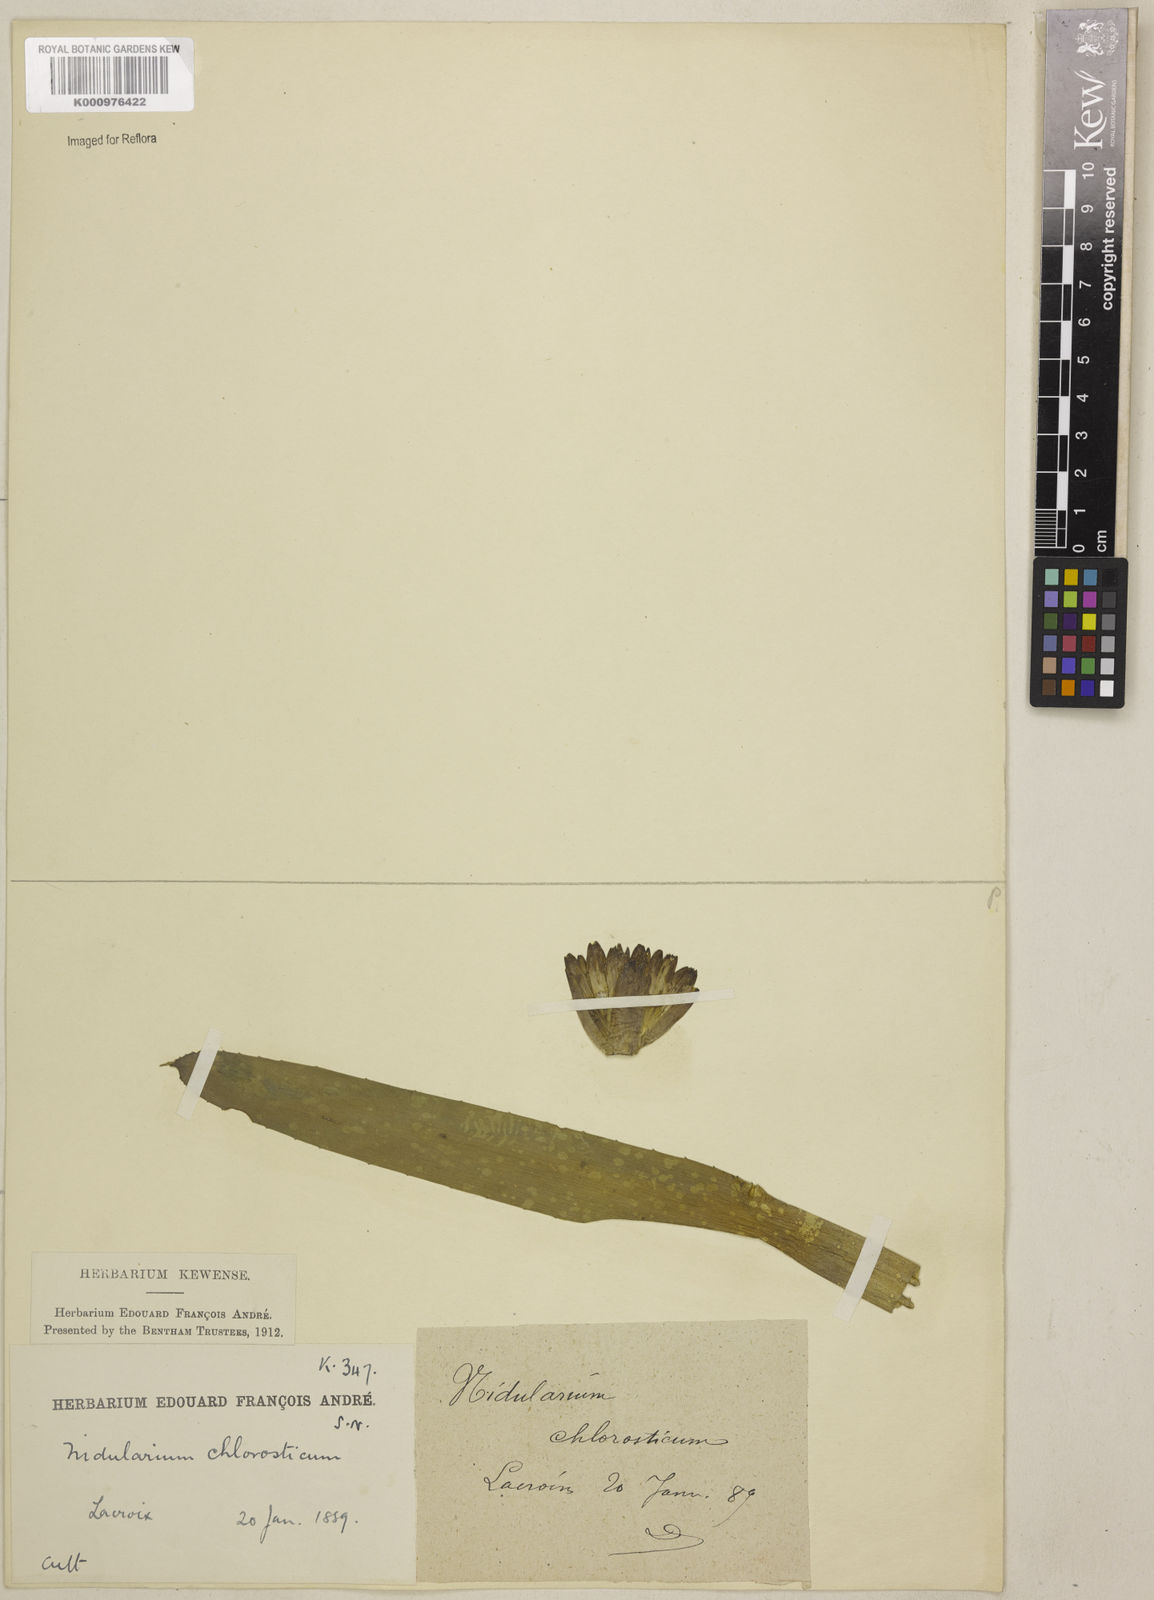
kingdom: Plantae
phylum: Tracheophyta
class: Liliopsida
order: Poales
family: Bromeliaceae
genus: Neoregelia
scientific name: Neoregelia chlorosticta
